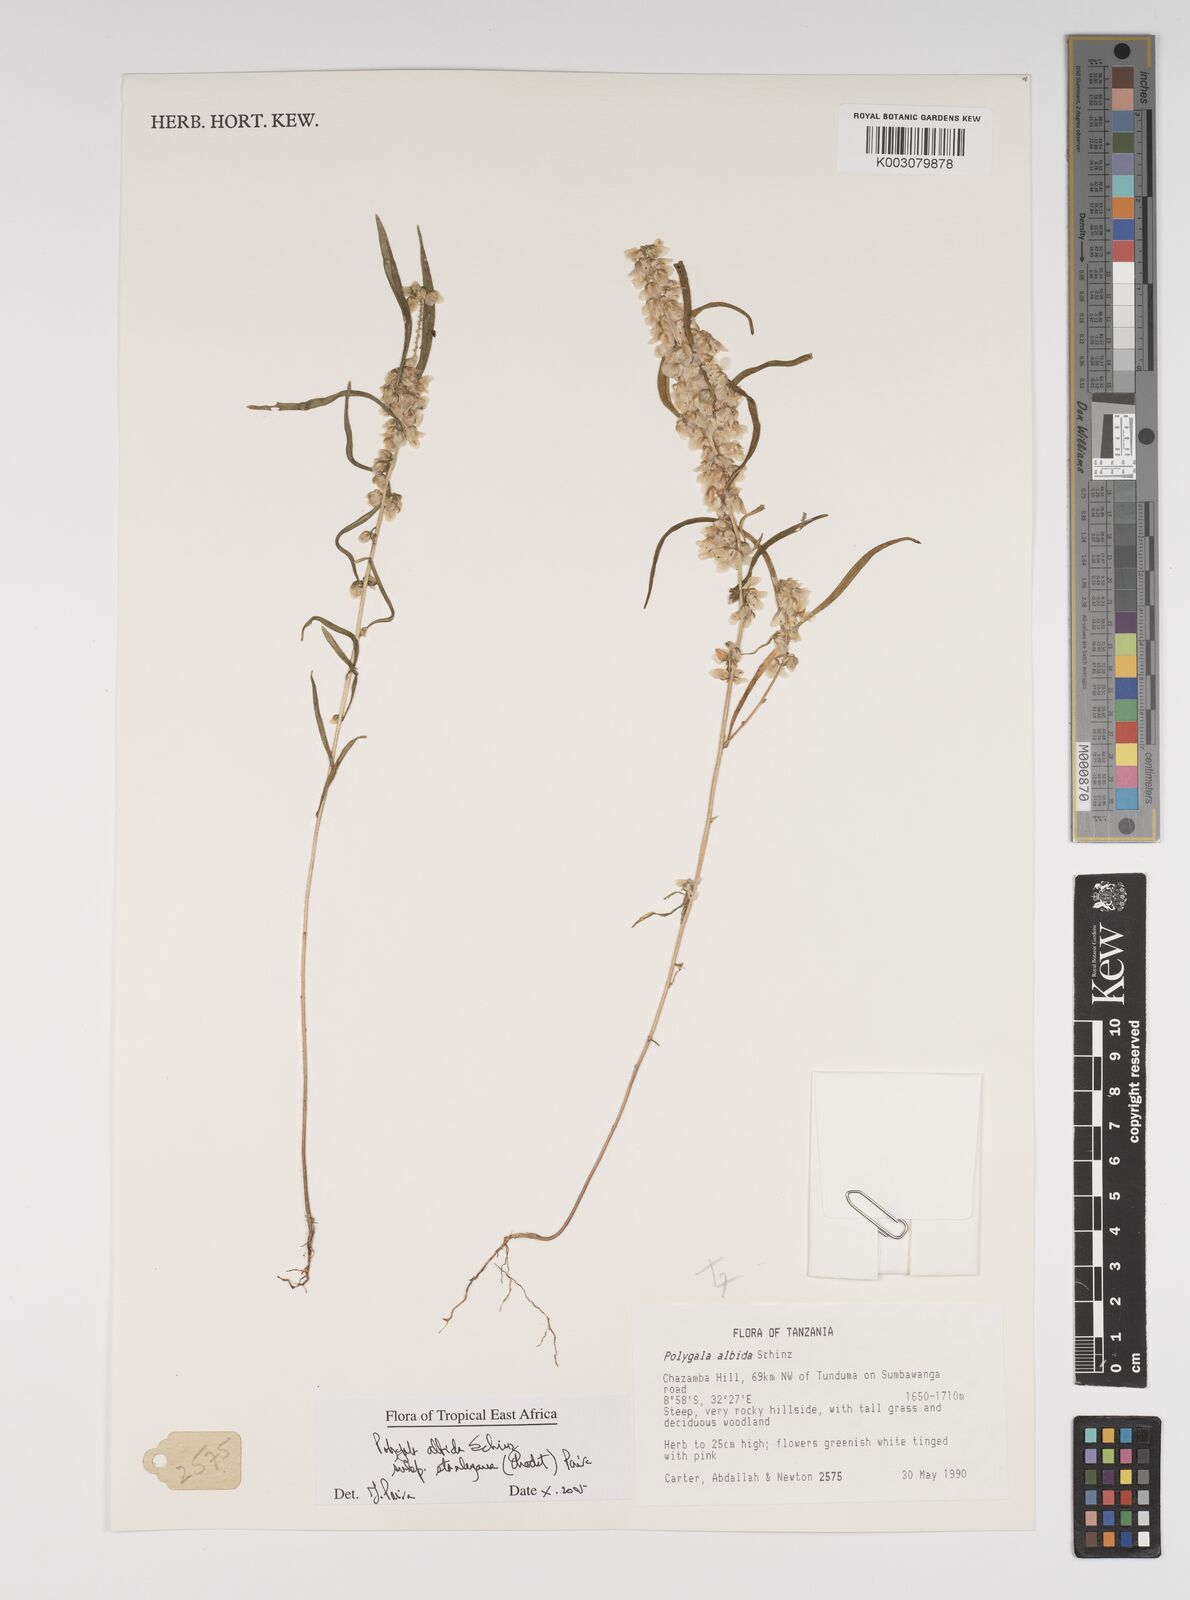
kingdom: Plantae
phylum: Tracheophyta
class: Magnoliopsida
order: Fabales
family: Polygalaceae
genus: Polygala
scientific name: Polygala albida
